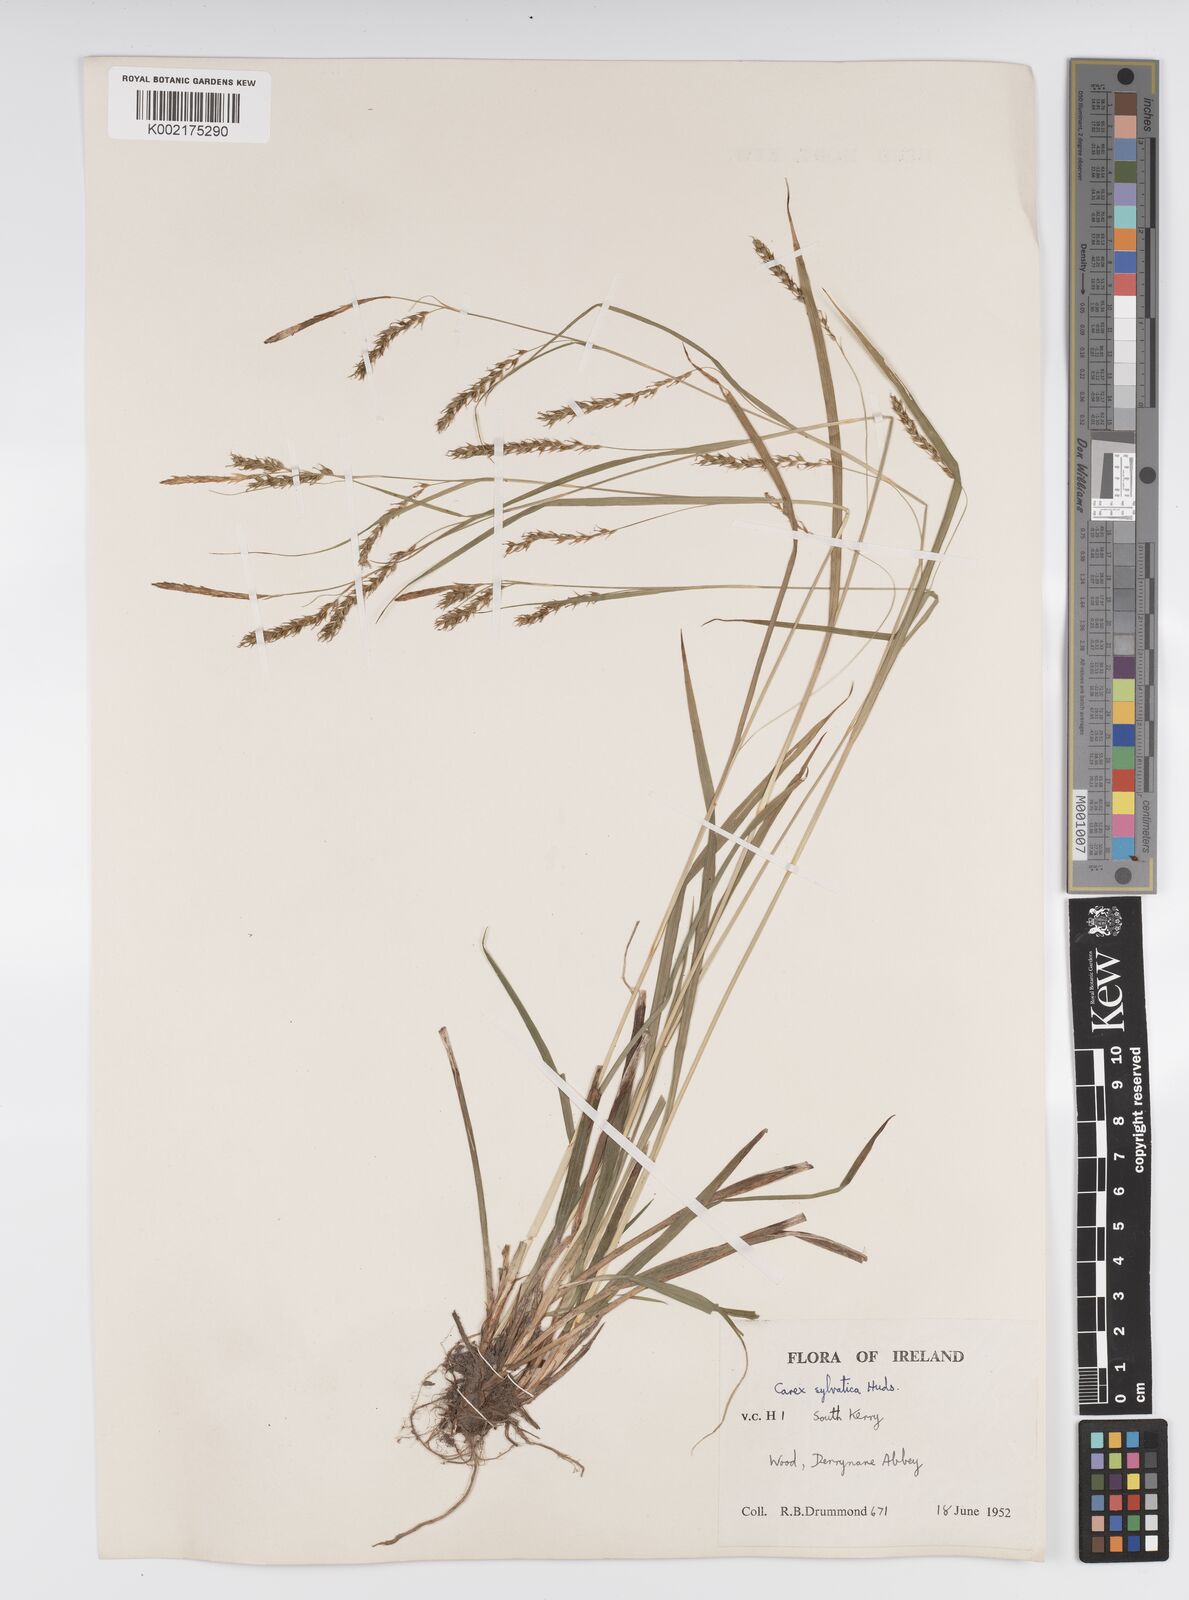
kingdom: Plantae
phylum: Tracheophyta
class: Liliopsida
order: Poales
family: Cyperaceae
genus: Carex
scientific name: Carex sylvatica
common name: Wood-sedge
